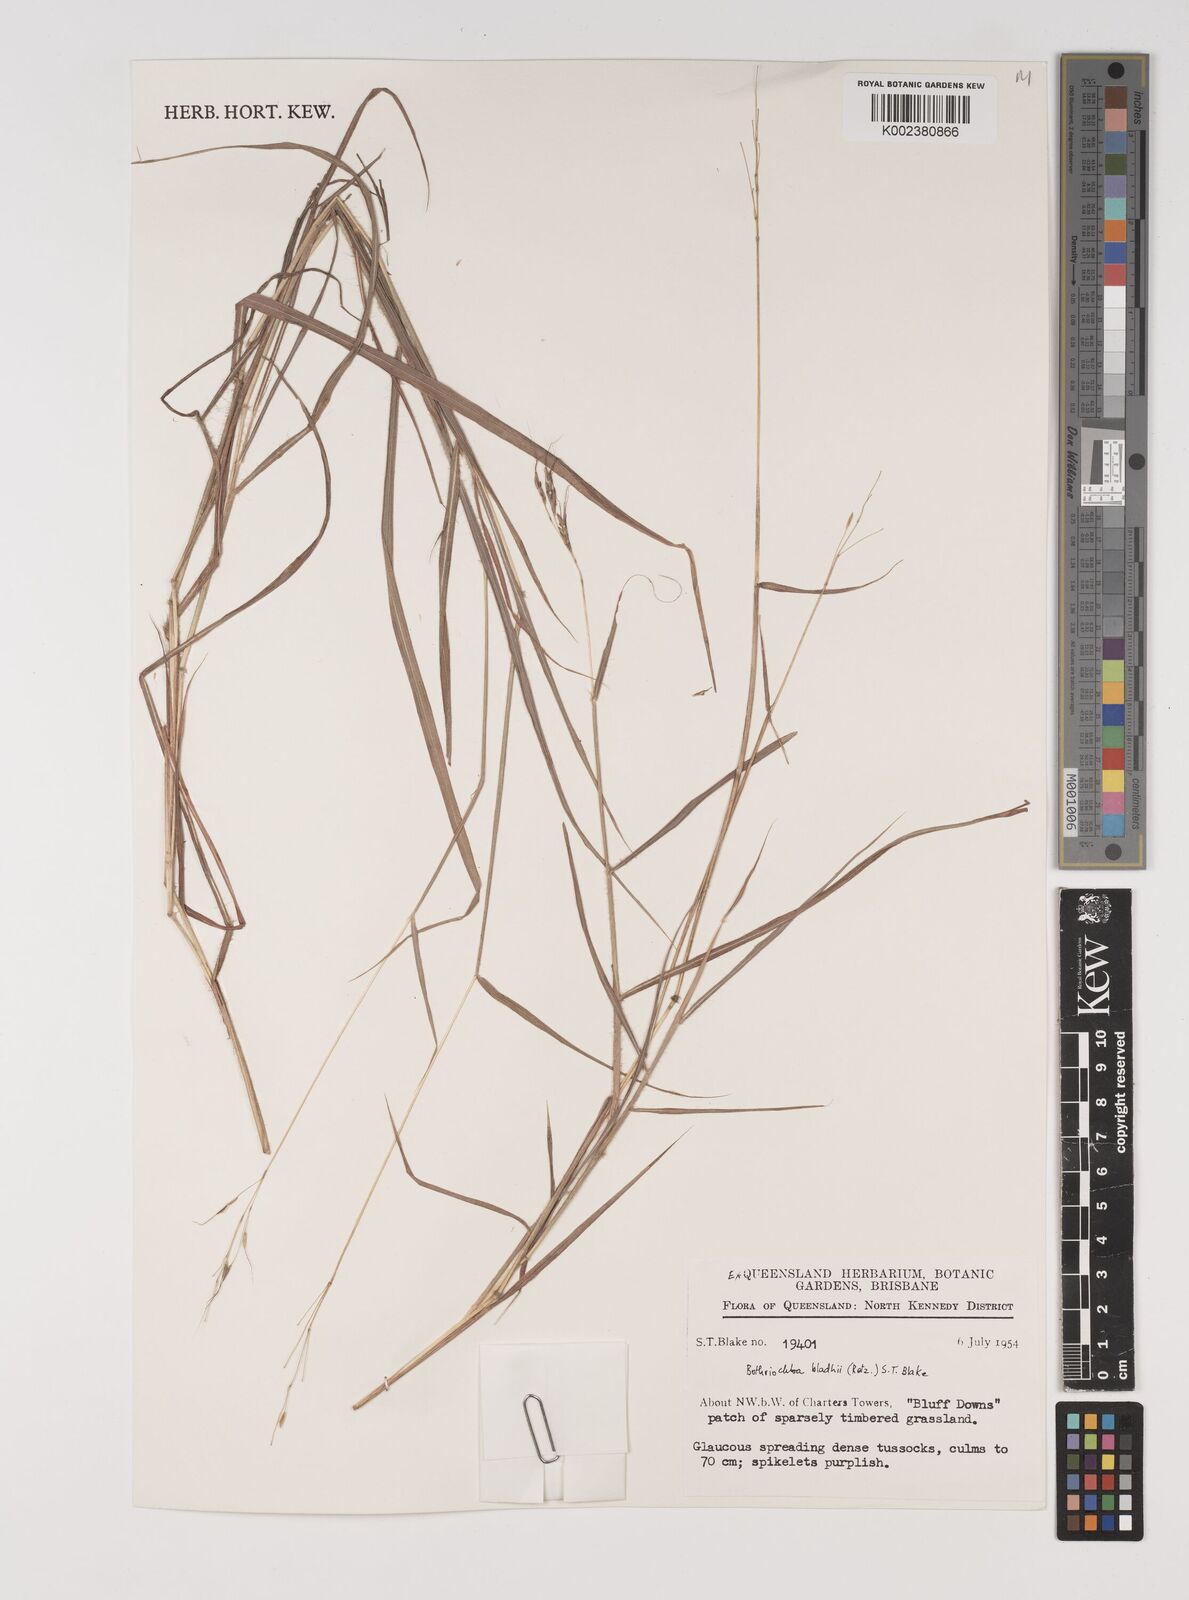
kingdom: Plantae
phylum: Tracheophyta
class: Liliopsida
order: Poales
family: Poaceae
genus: Bothriochloa
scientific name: Bothriochloa bladhii
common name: Caucasian bluestem
